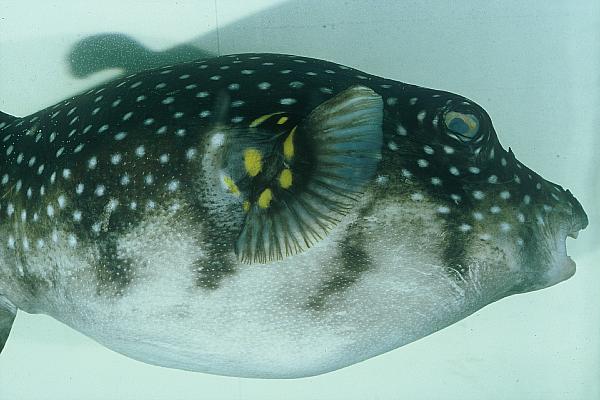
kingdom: Animalia
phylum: Chordata
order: Tetraodontiformes
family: Tetraodontidae
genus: Arothron
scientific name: Arothron hispidus
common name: Stripebelly puffer
